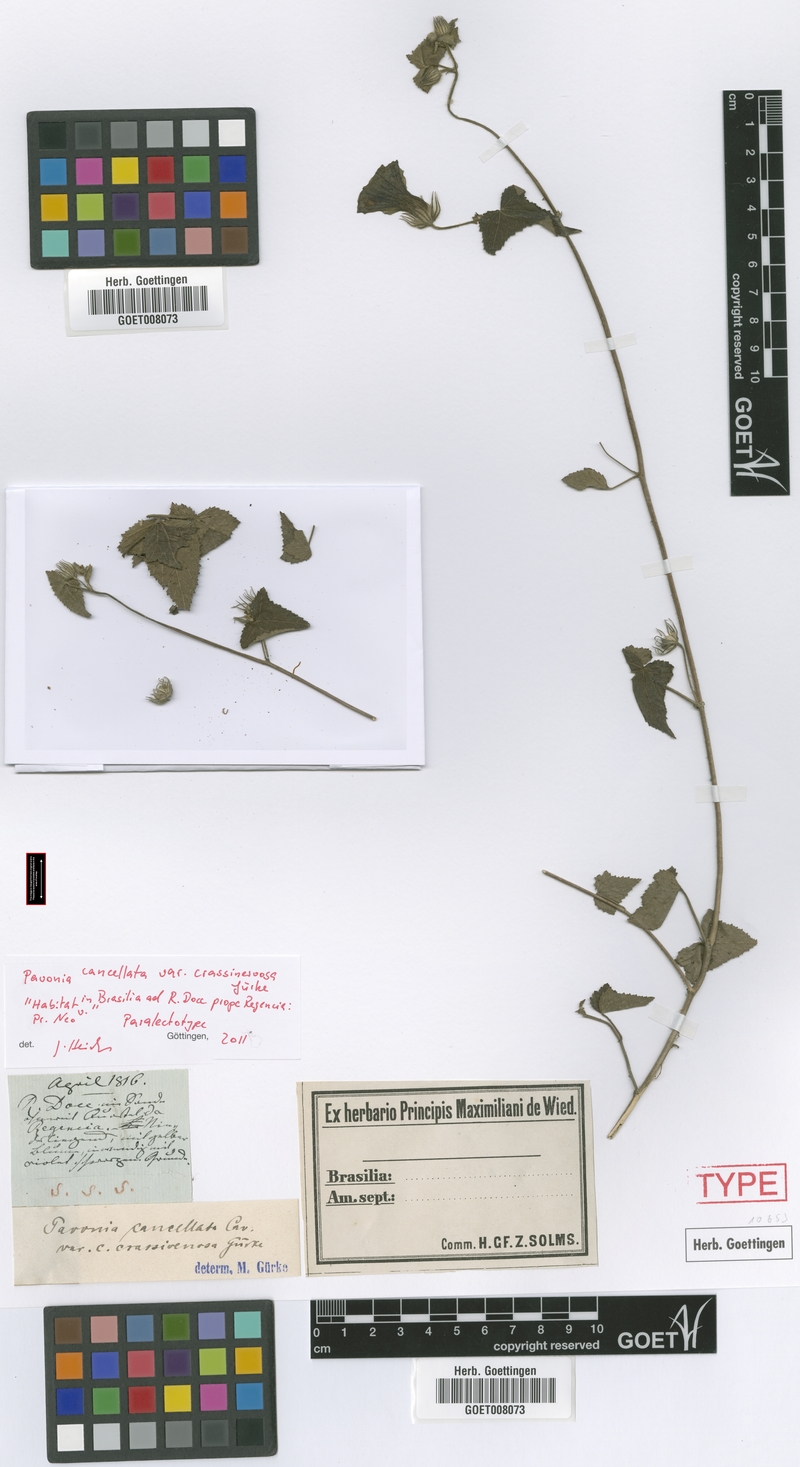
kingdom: Plantae
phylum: Tracheophyta
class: Magnoliopsida
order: Malvales
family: Malvaceae
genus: Pavonia
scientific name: Pavonia cancellata
